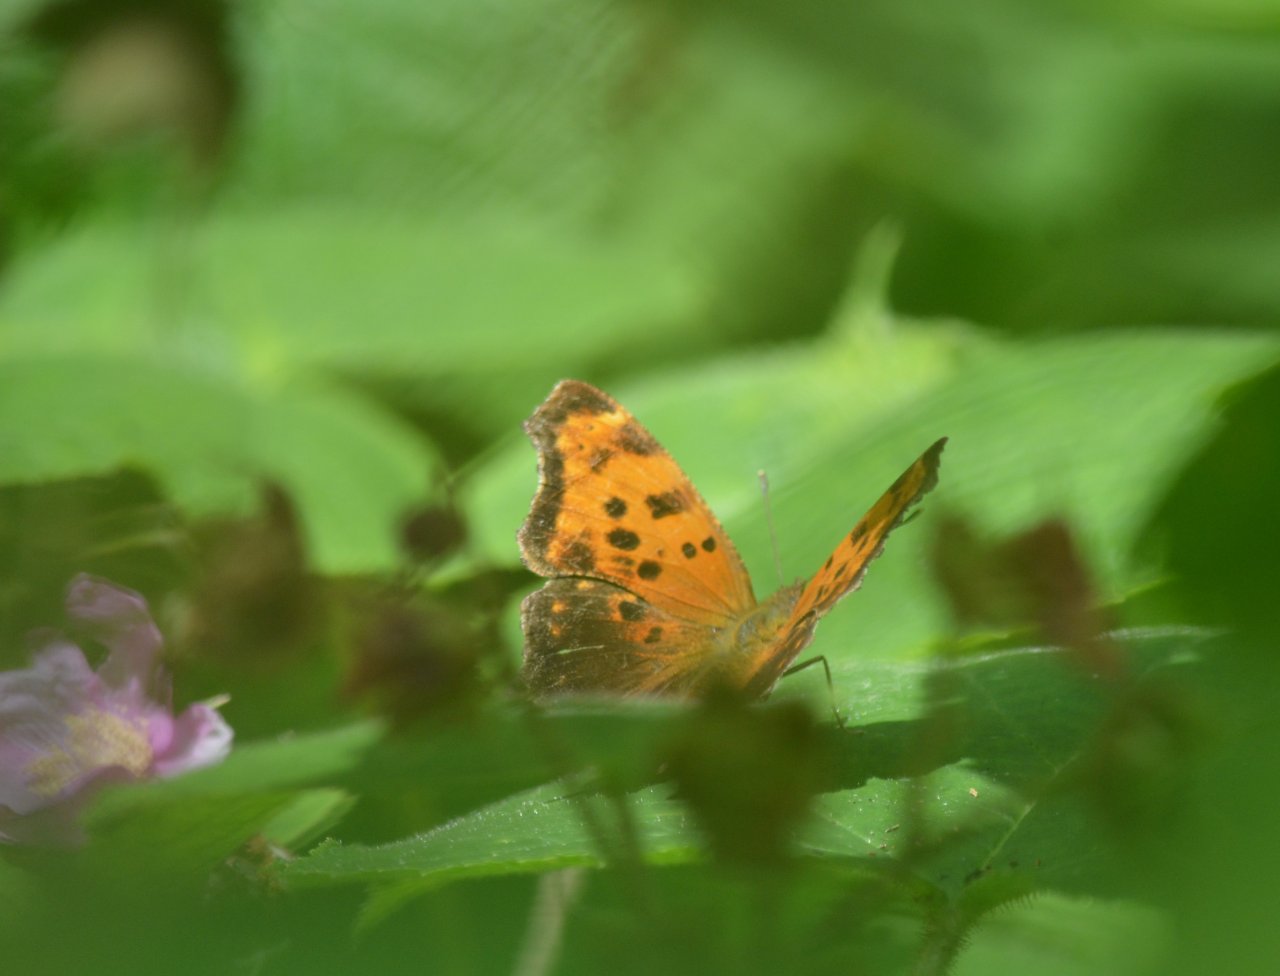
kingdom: Animalia
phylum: Arthropoda
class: Insecta
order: Lepidoptera
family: Nymphalidae
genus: Polygonia
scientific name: Polygonia comma
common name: Eastern Comma
